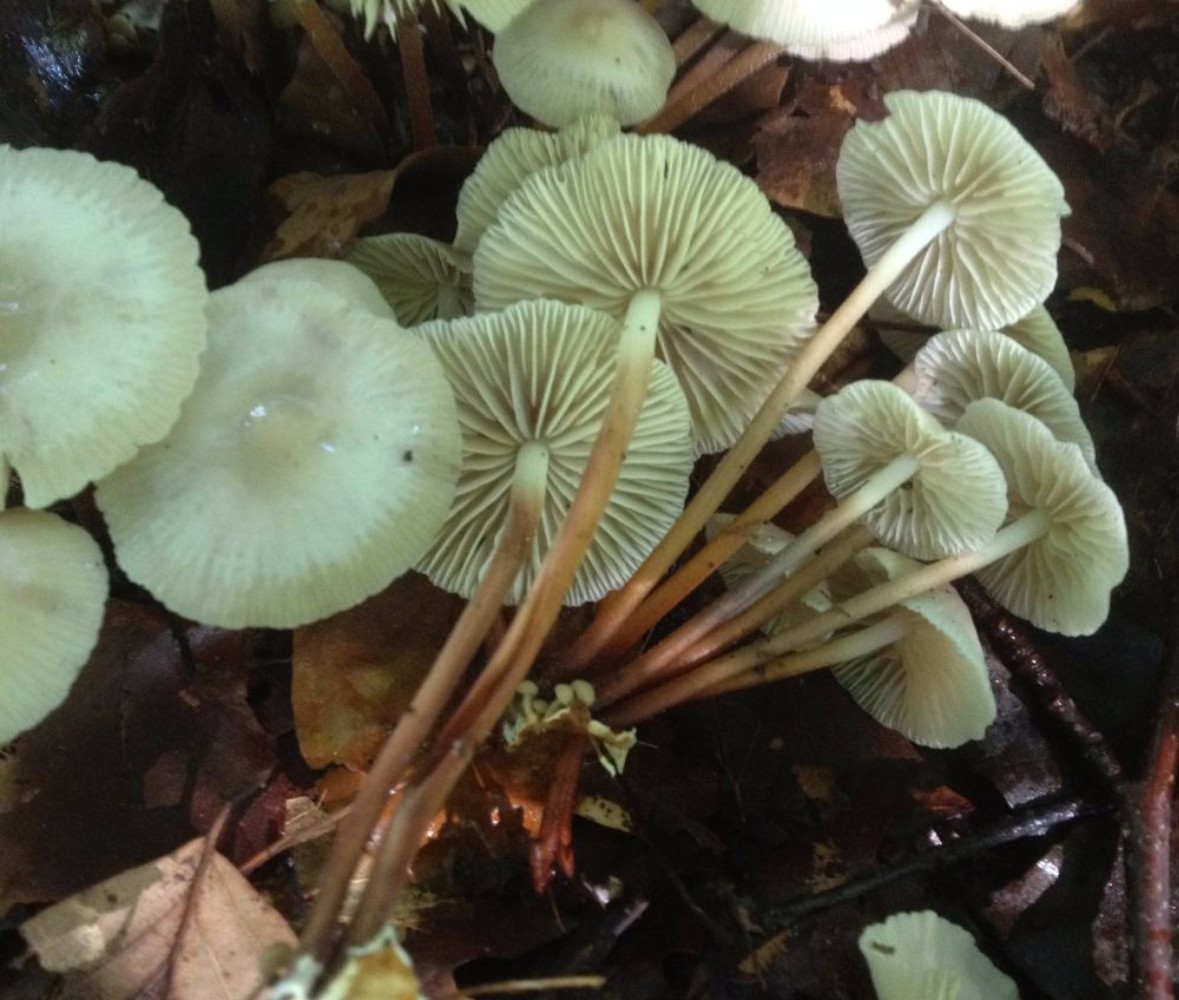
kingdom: Fungi
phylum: Basidiomycota
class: Agaricomycetes
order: Agaricales
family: Marasmiaceae
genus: Marasmius
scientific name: Marasmius wynneae
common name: hvælvet bruskhat
